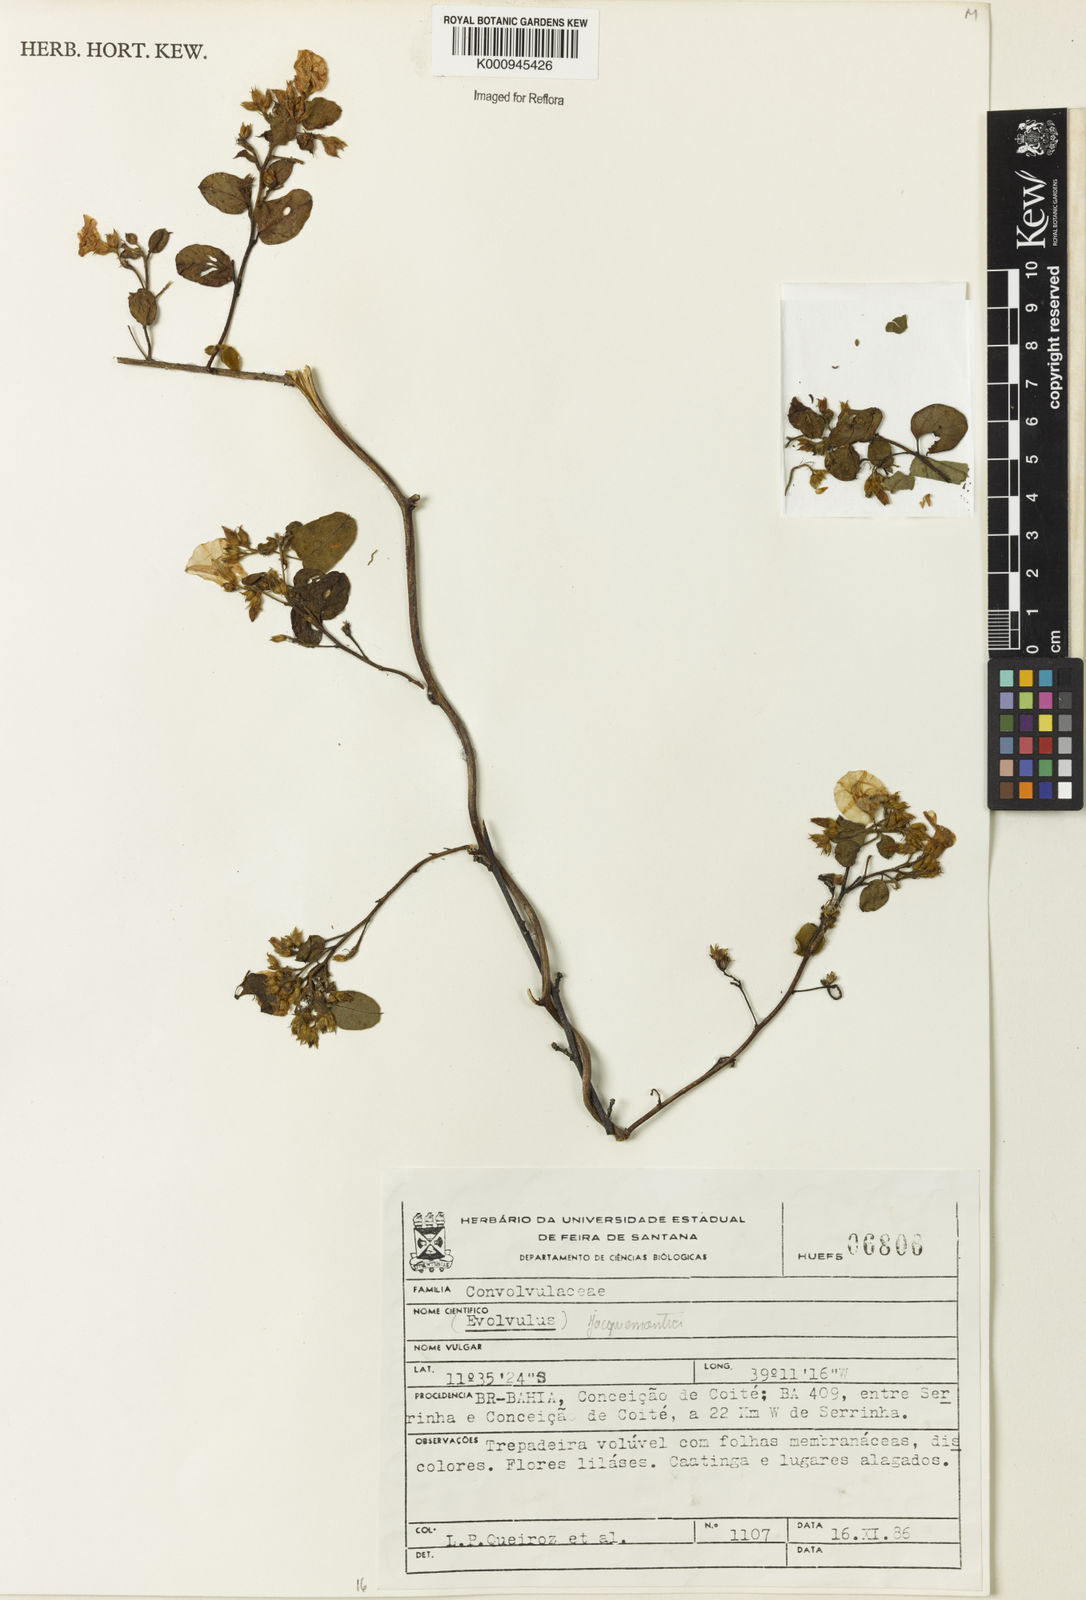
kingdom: Plantae
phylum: Tracheophyta
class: Magnoliopsida
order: Solanales
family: Convolvulaceae
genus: Jacquemontia
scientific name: Jacquemontia
